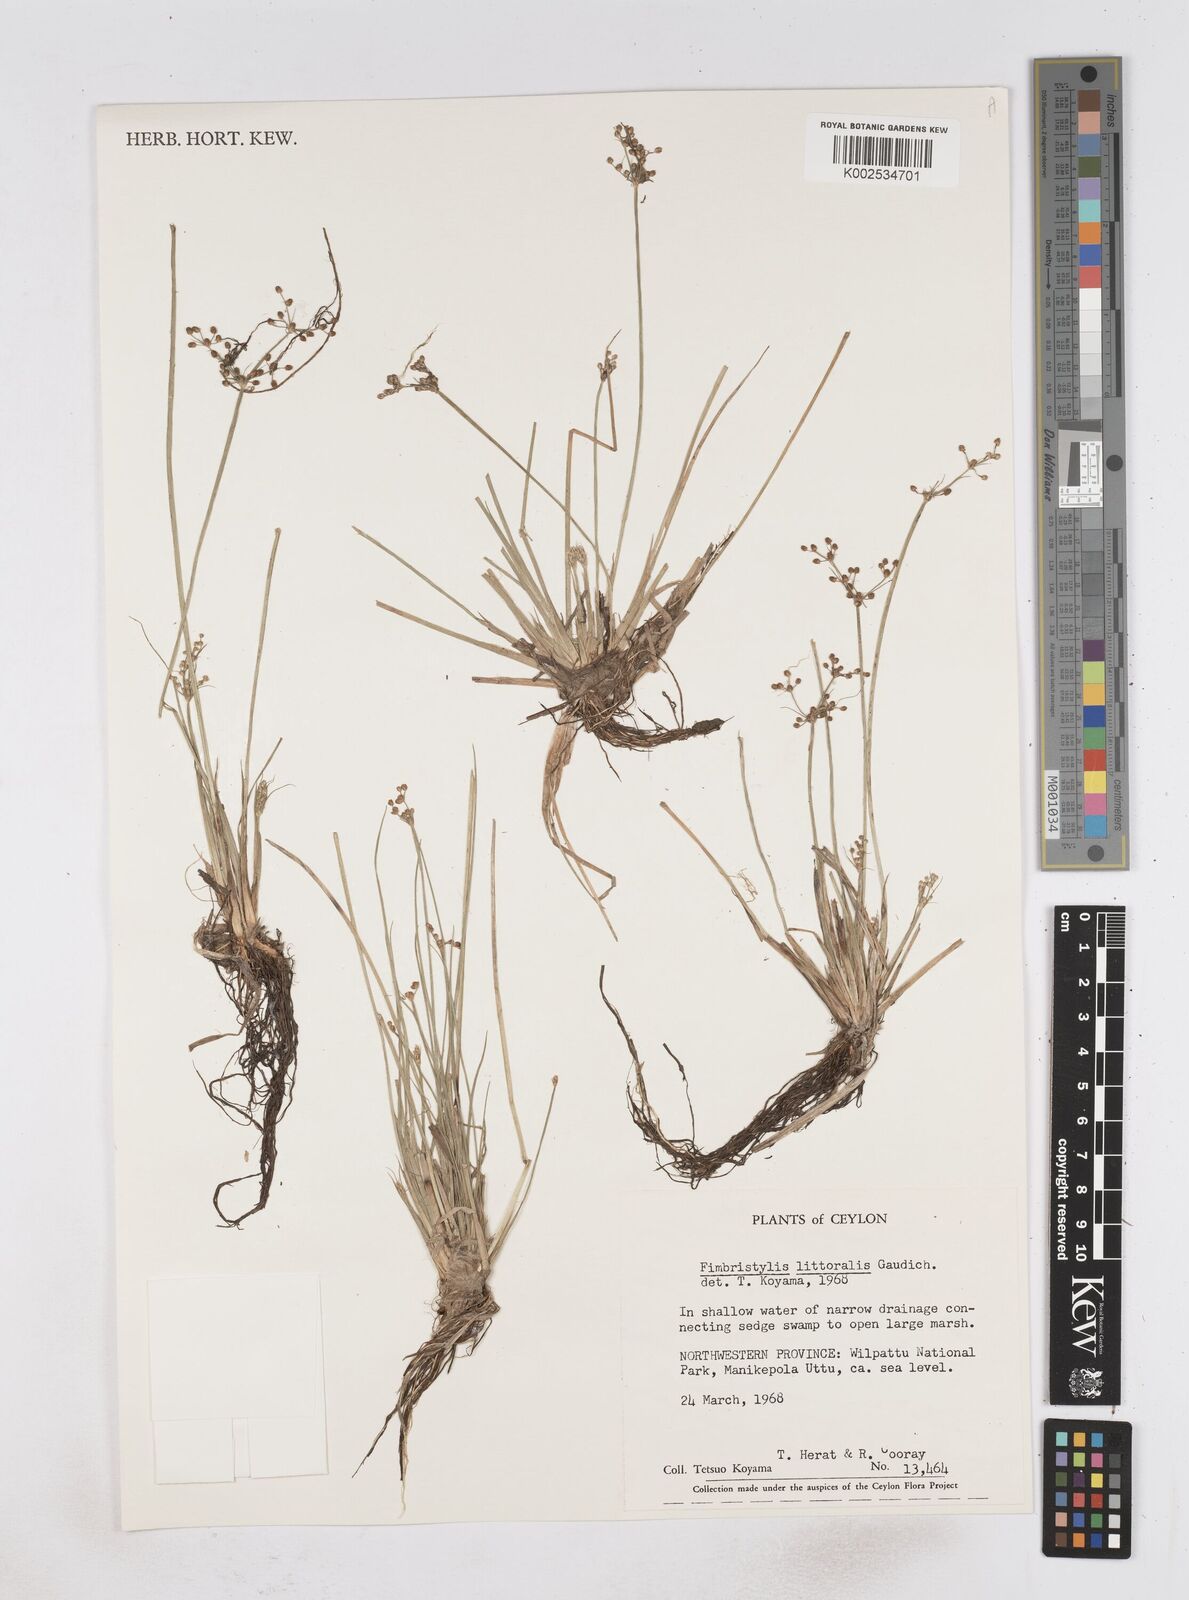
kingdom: Plantae
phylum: Tracheophyta
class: Liliopsida
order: Poales
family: Cyperaceae
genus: Fimbristylis
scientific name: Fimbristylis littoralis
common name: Fimbry
